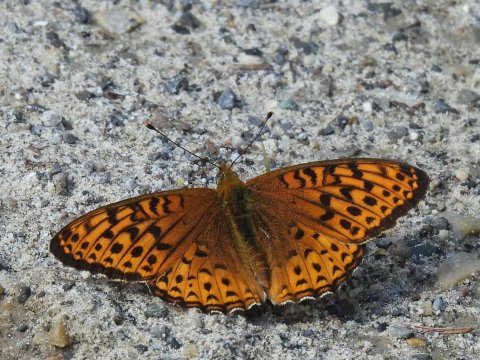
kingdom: Animalia
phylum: Arthropoda
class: Insecta
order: Lepidoptera
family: Nymphalidae
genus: Speyeria
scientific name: Speyeria atlantis
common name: Atlantis Fritillary
